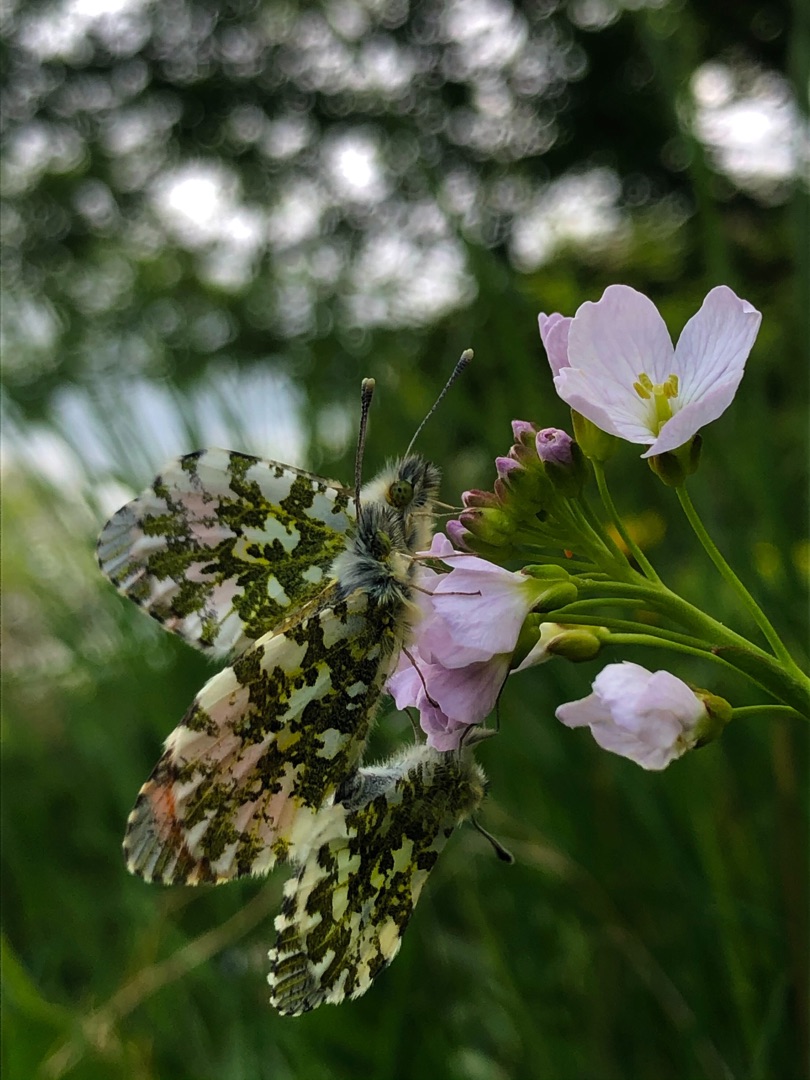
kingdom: Animalia
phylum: Arthropoda
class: Insecta
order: Lepidoptera
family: Pieridae
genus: Anthocharis
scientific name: Anthocharis cardamines
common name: Aurora
